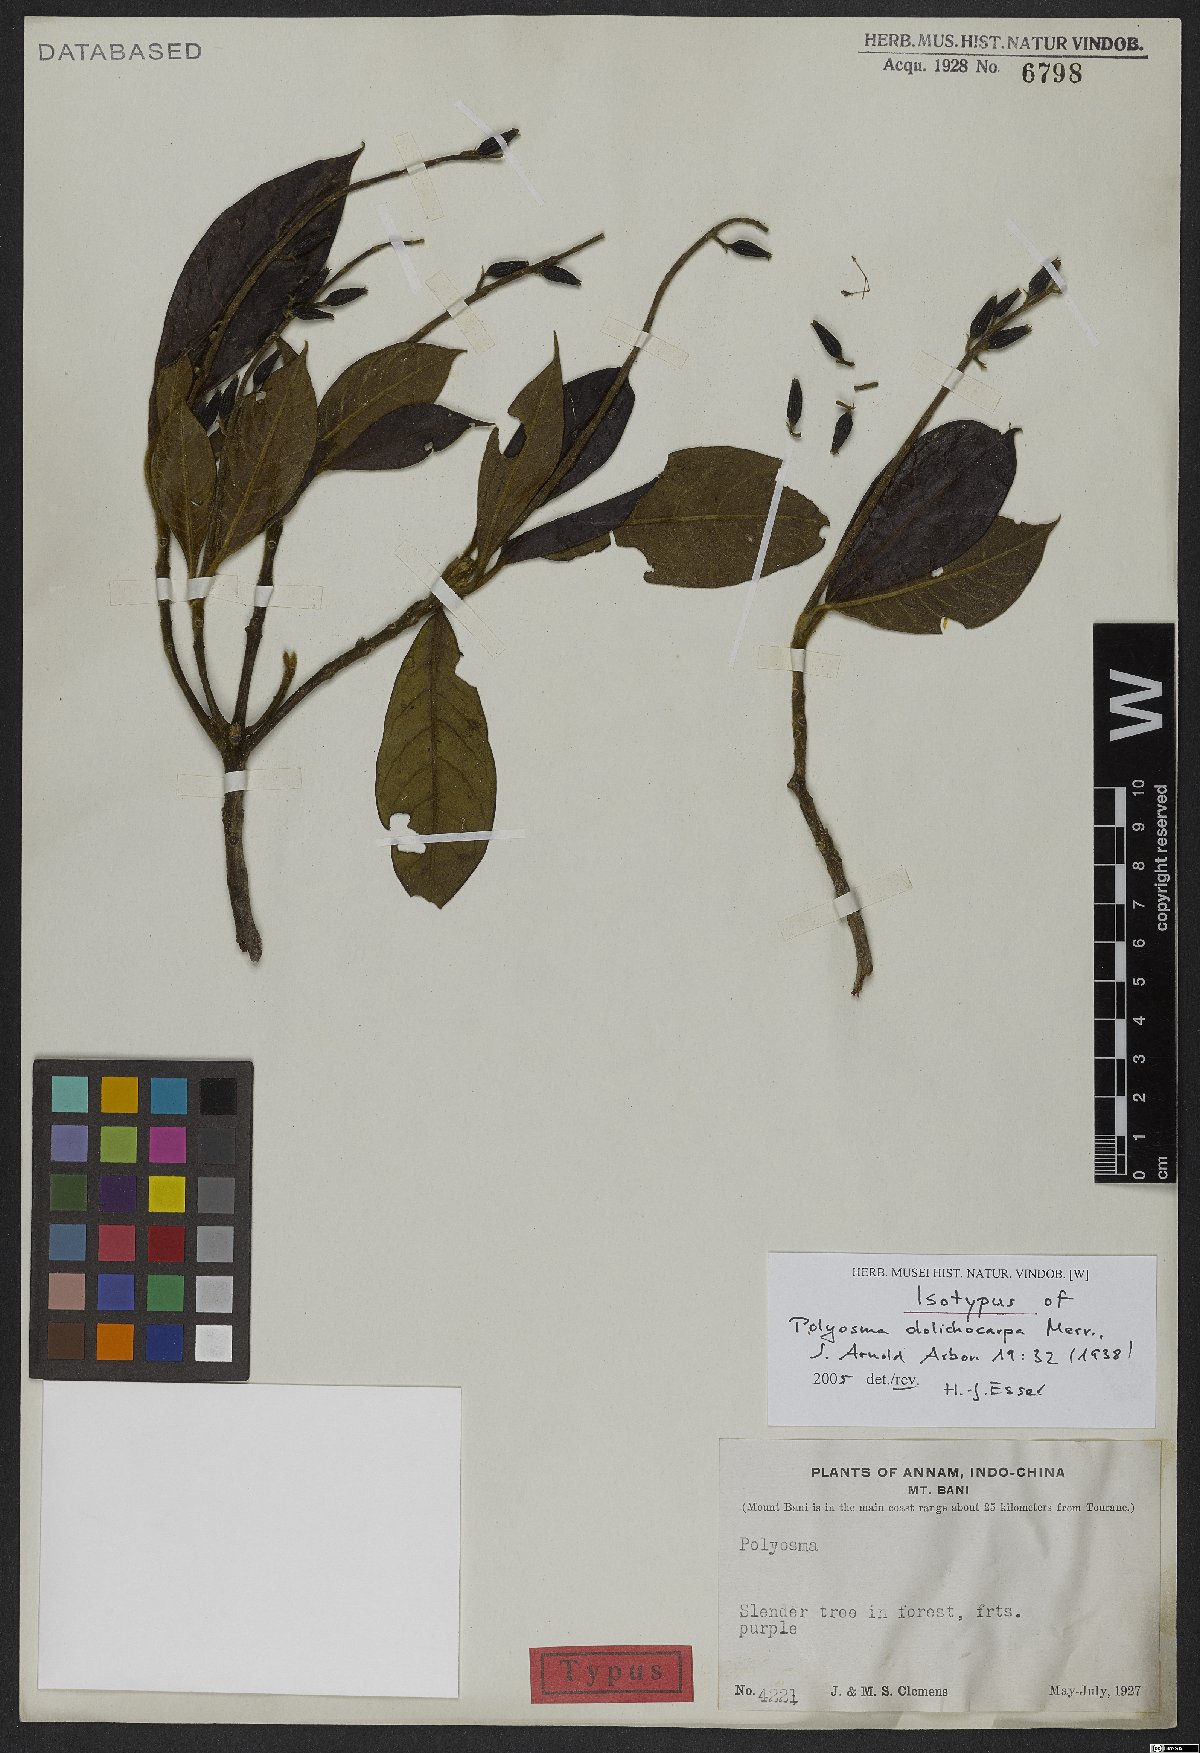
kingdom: Plantae
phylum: Tracheophyta
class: Magnoliopsida
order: Escalloniales
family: Escalloniaceae
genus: Polyosma
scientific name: Polyosma dolichocarpa
